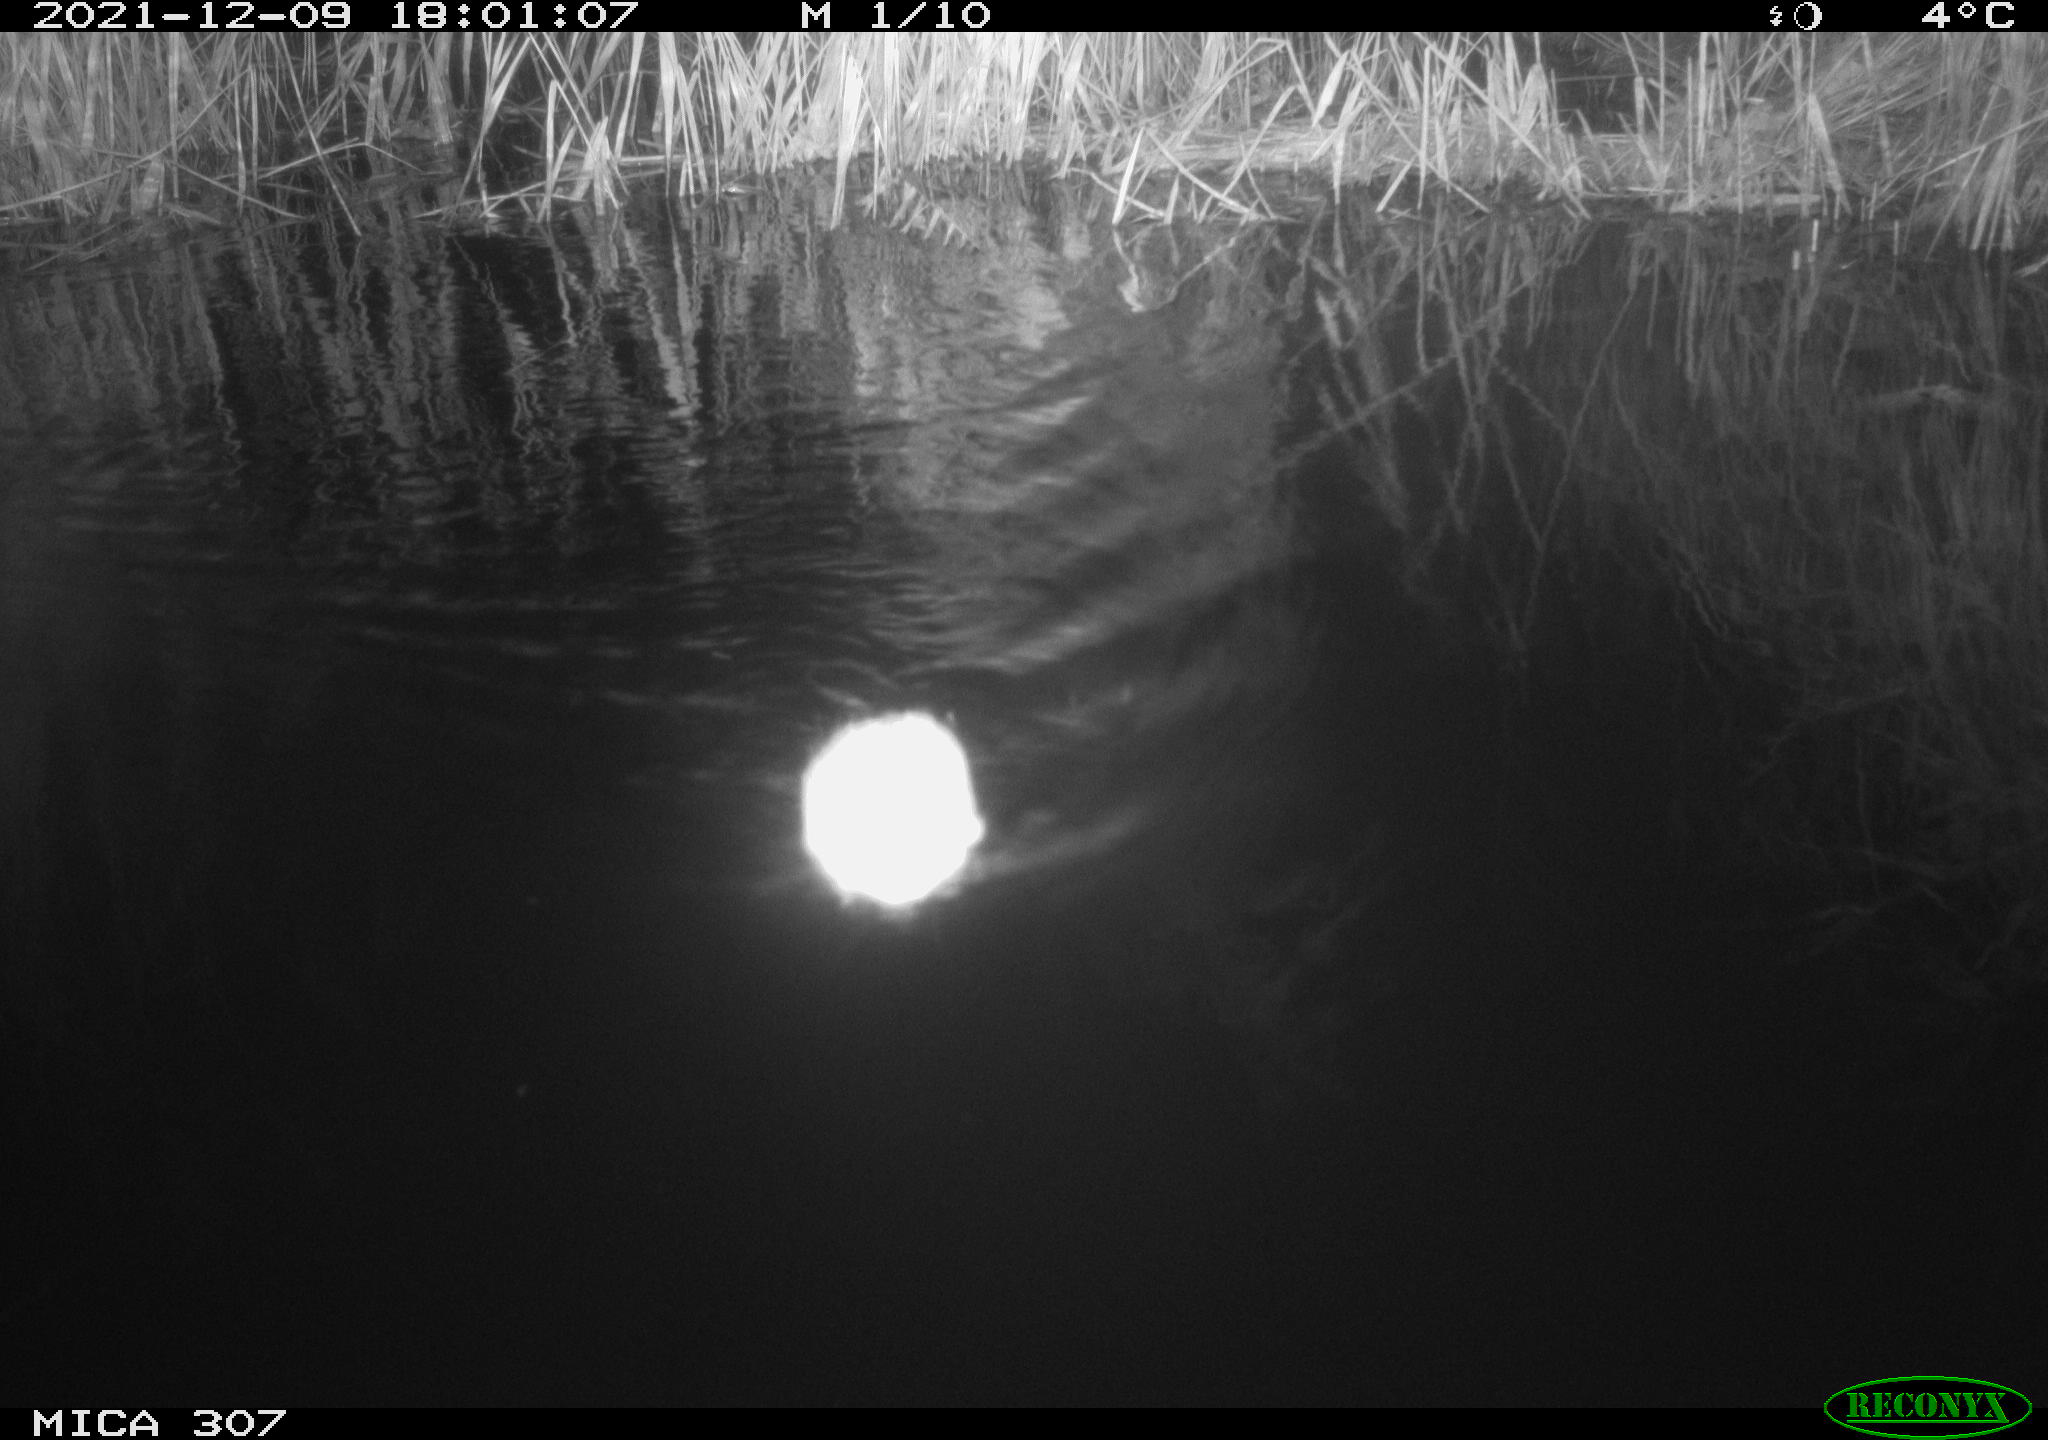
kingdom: Animalia
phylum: Chordata
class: Mammalia
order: Rodentia
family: Muridae
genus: Rattus
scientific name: Rattus norvegicus
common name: Brown rat
